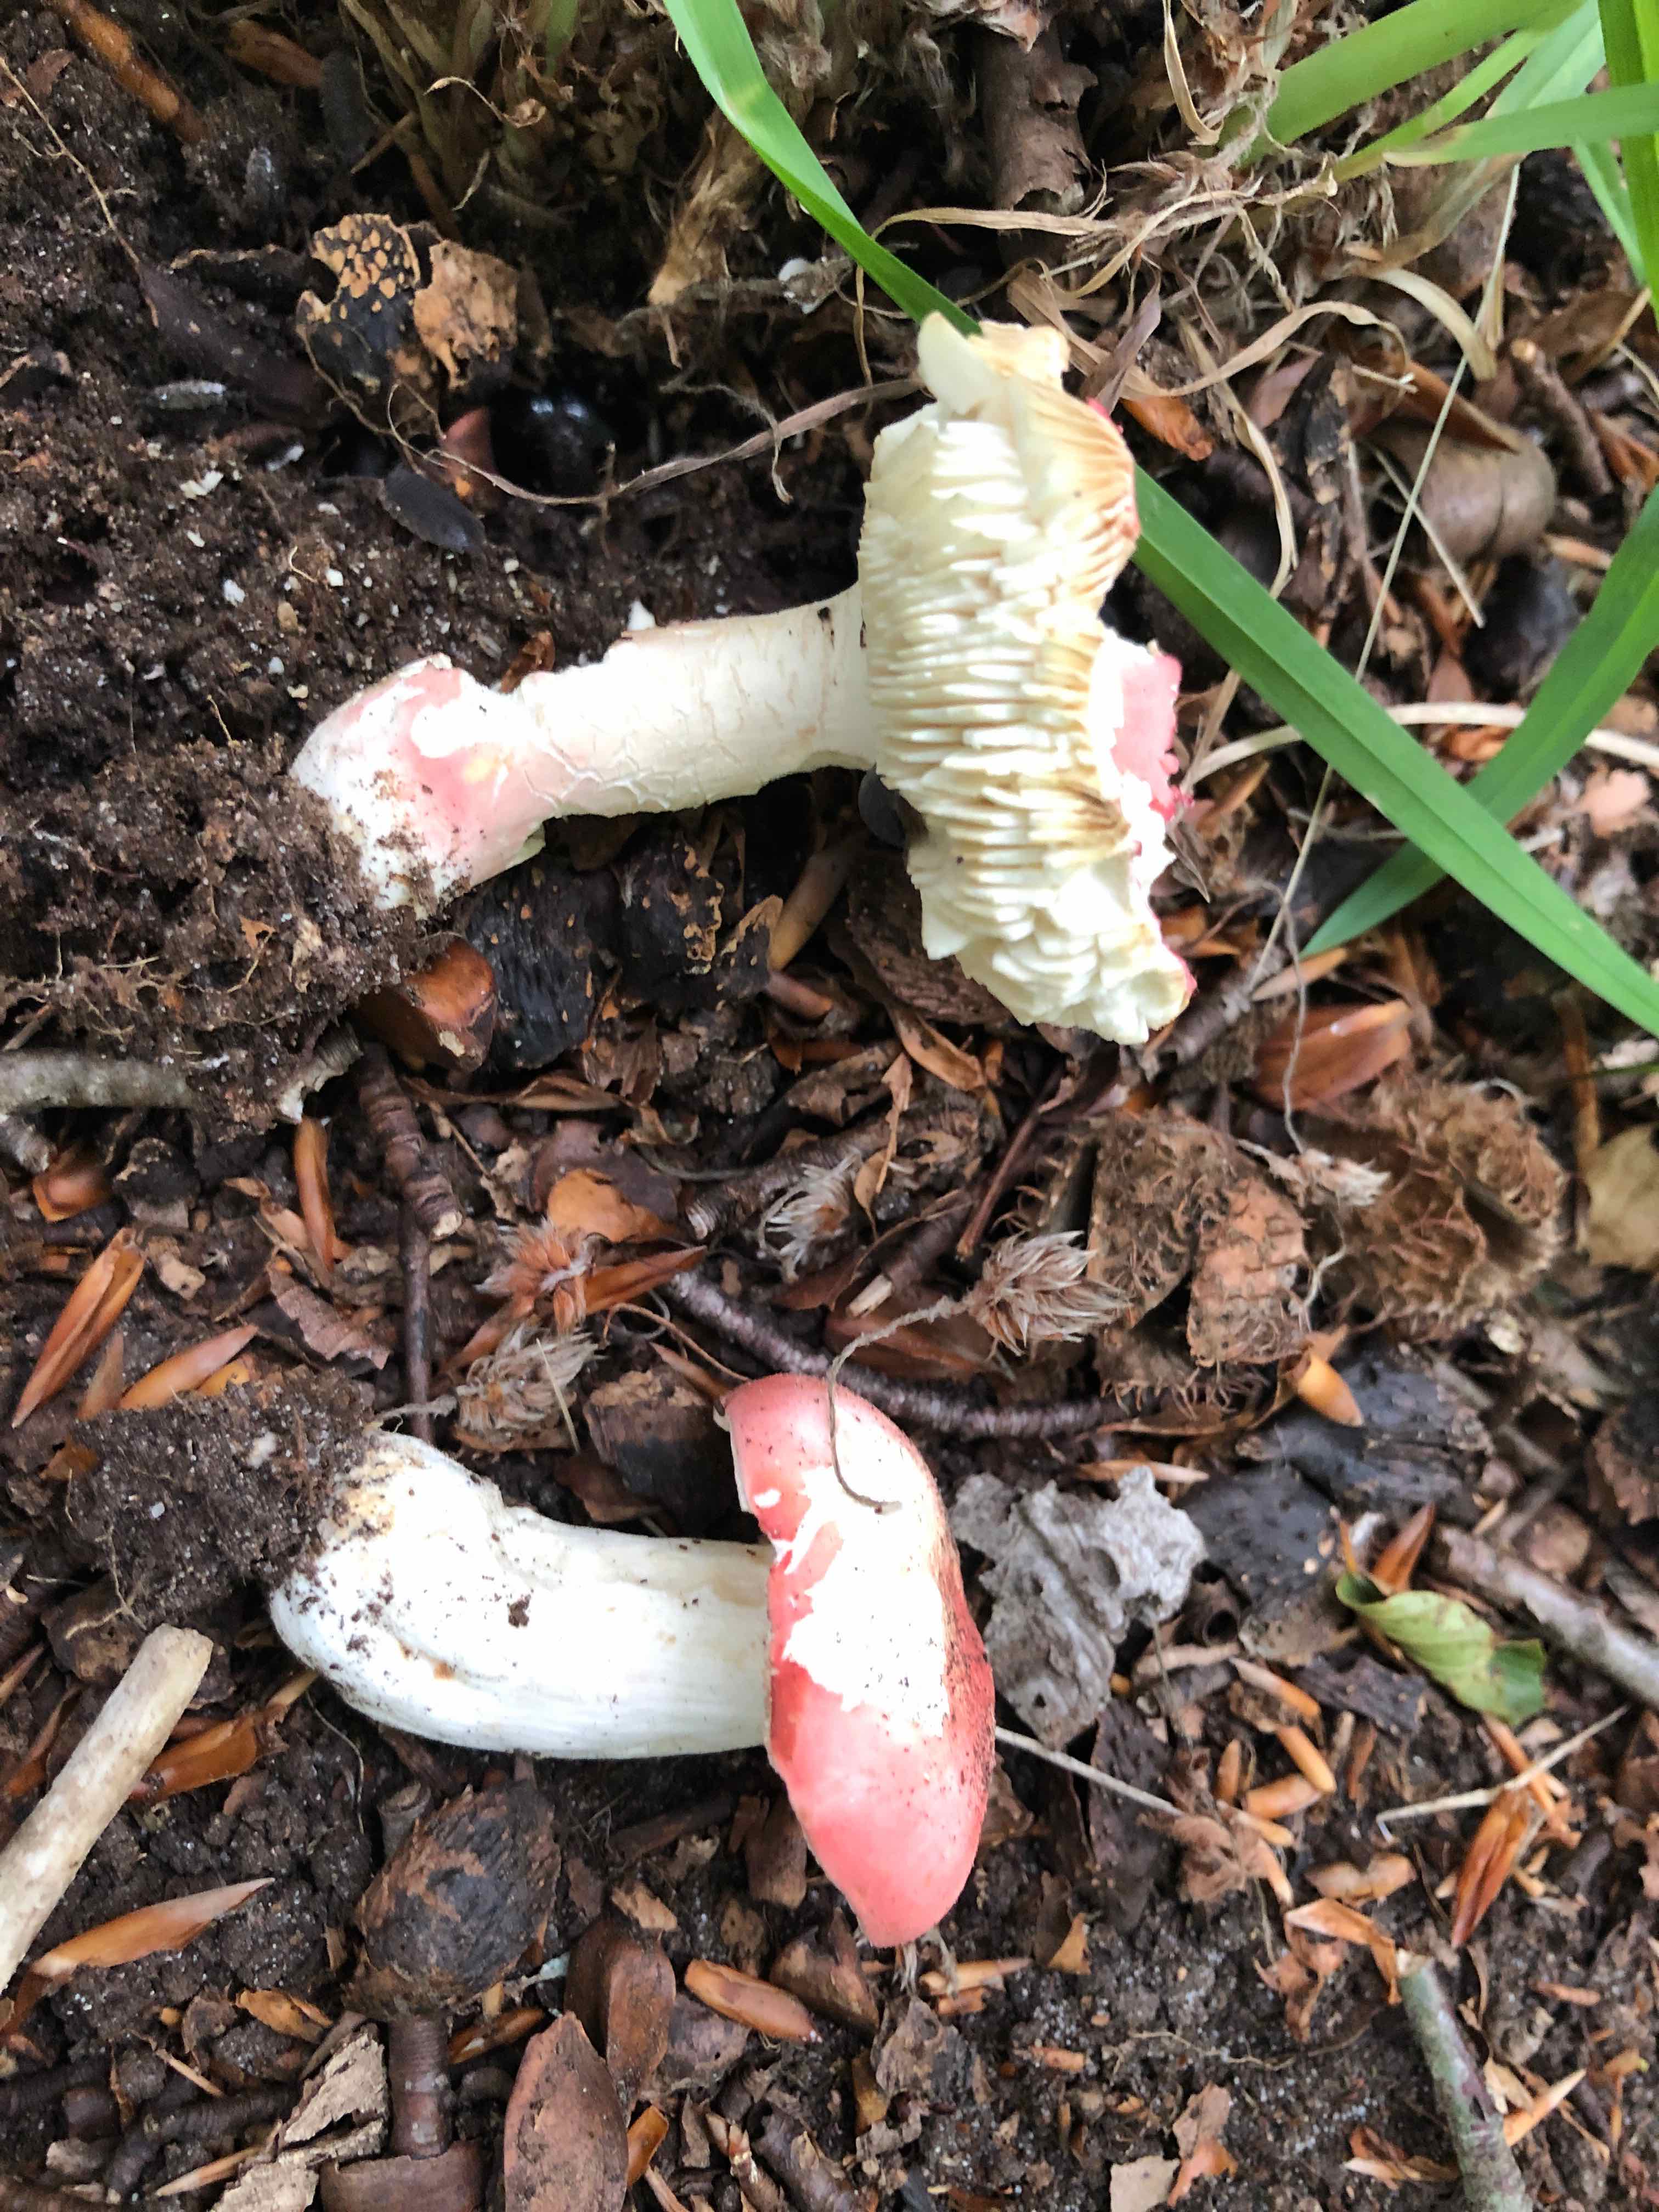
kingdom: Fungi
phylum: Basidiomycota
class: Agaricomycetes
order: Russulales
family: Russulaceae
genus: Russula
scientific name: Russula rosea
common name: fastkødet skørhat
